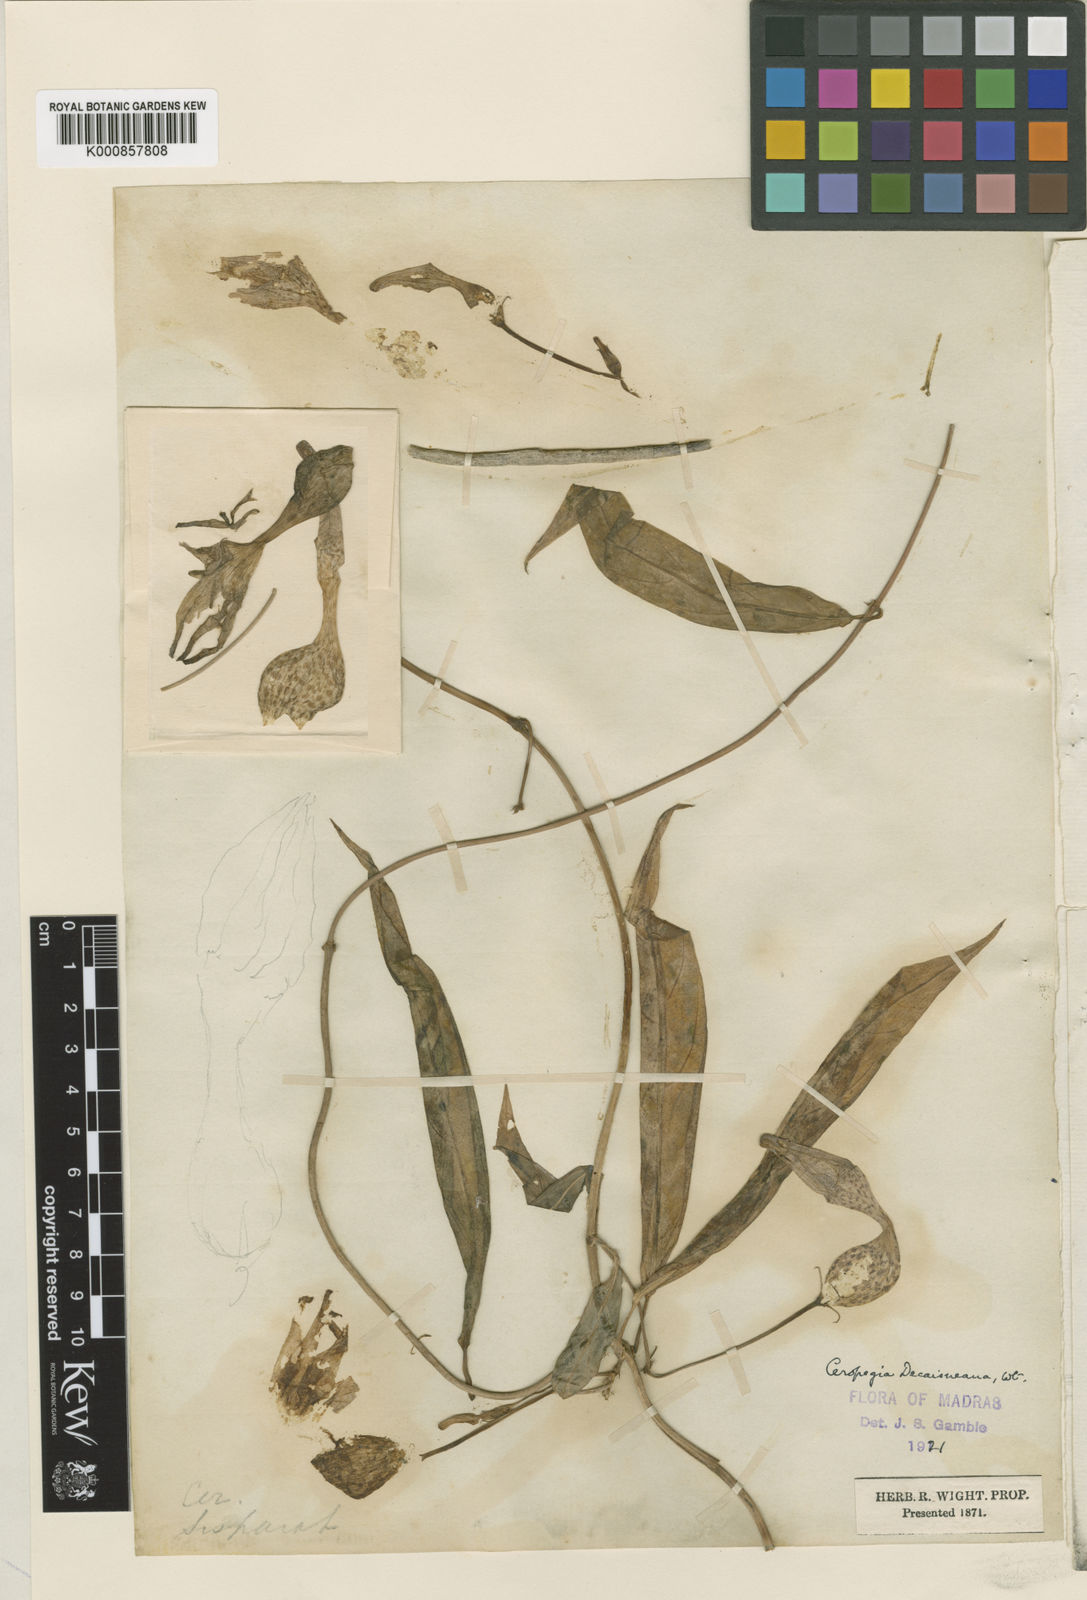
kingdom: Plantae
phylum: Tracheophyta
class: Magnoliopsida
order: Gentianales
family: Apocynaceae
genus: Ceropegia
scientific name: Ceropegia decaisneana
